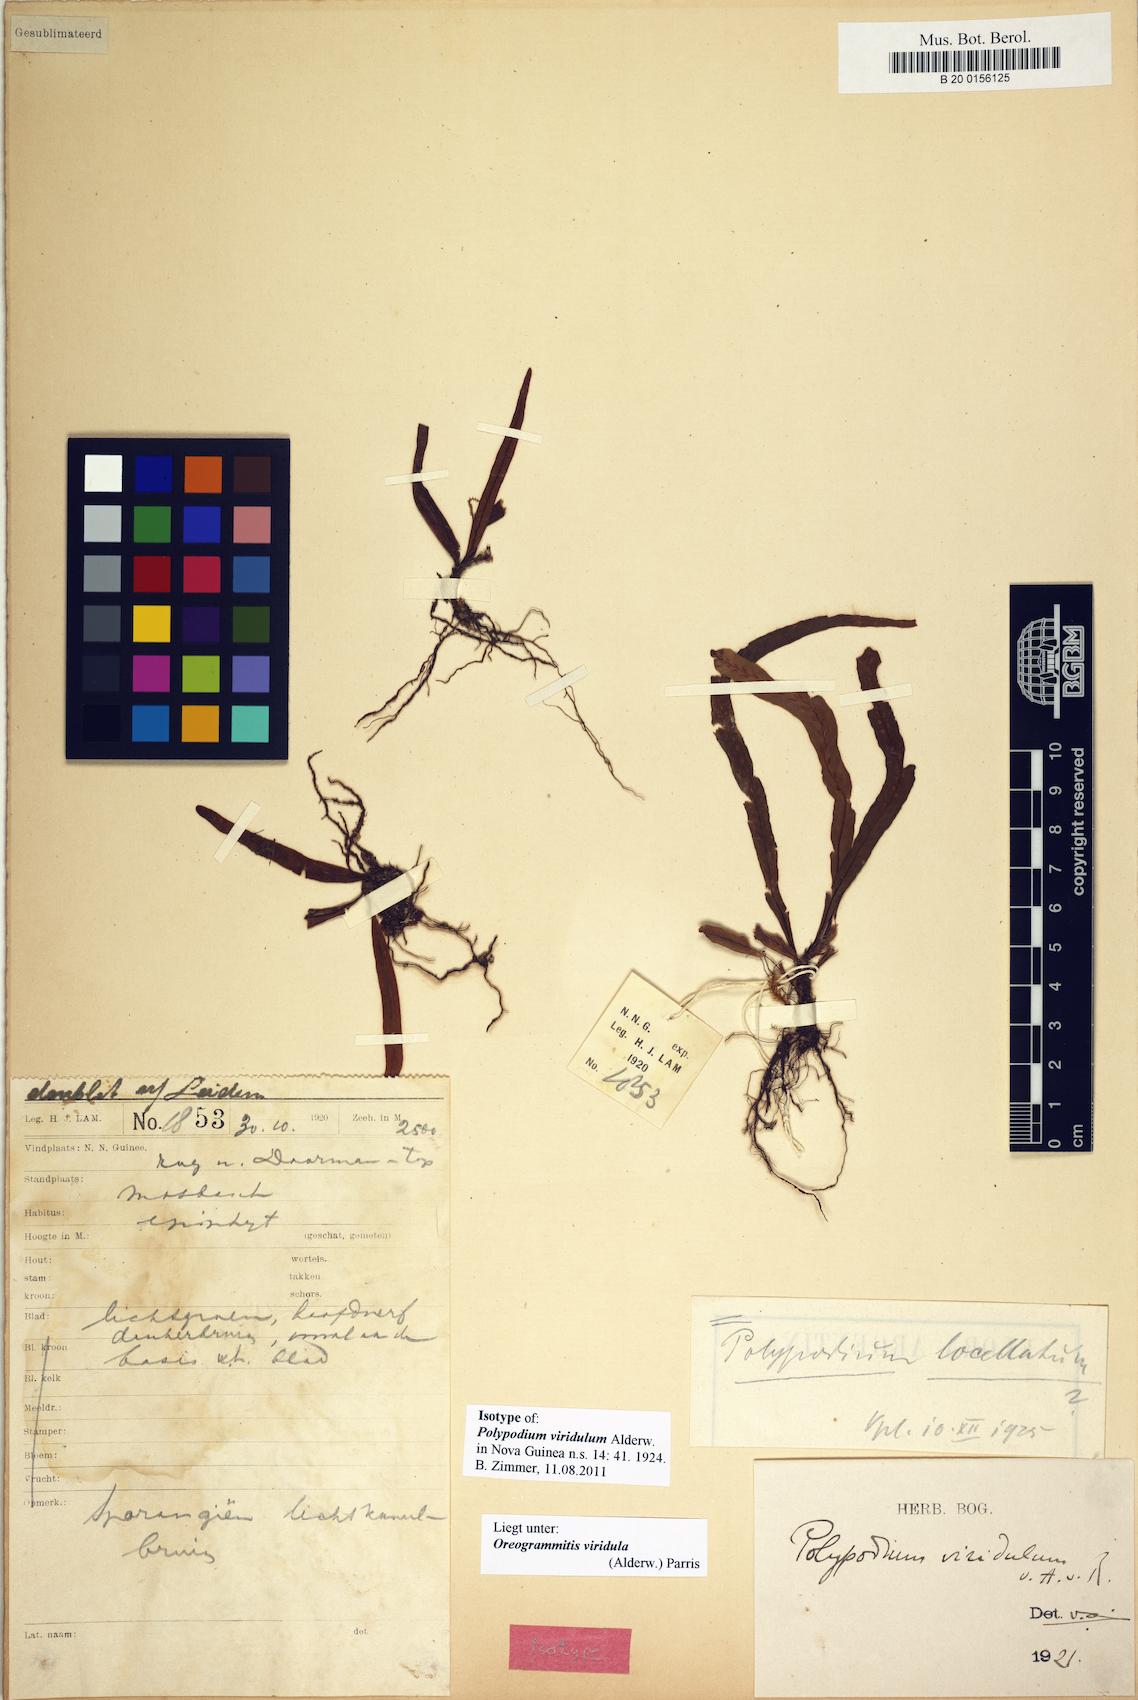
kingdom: Plantae
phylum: Tracheophyta
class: Polypodiopsida
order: Polypodiales
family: Polypodiaceae
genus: Oreogrammitis
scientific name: Oreogrammitis viridula
